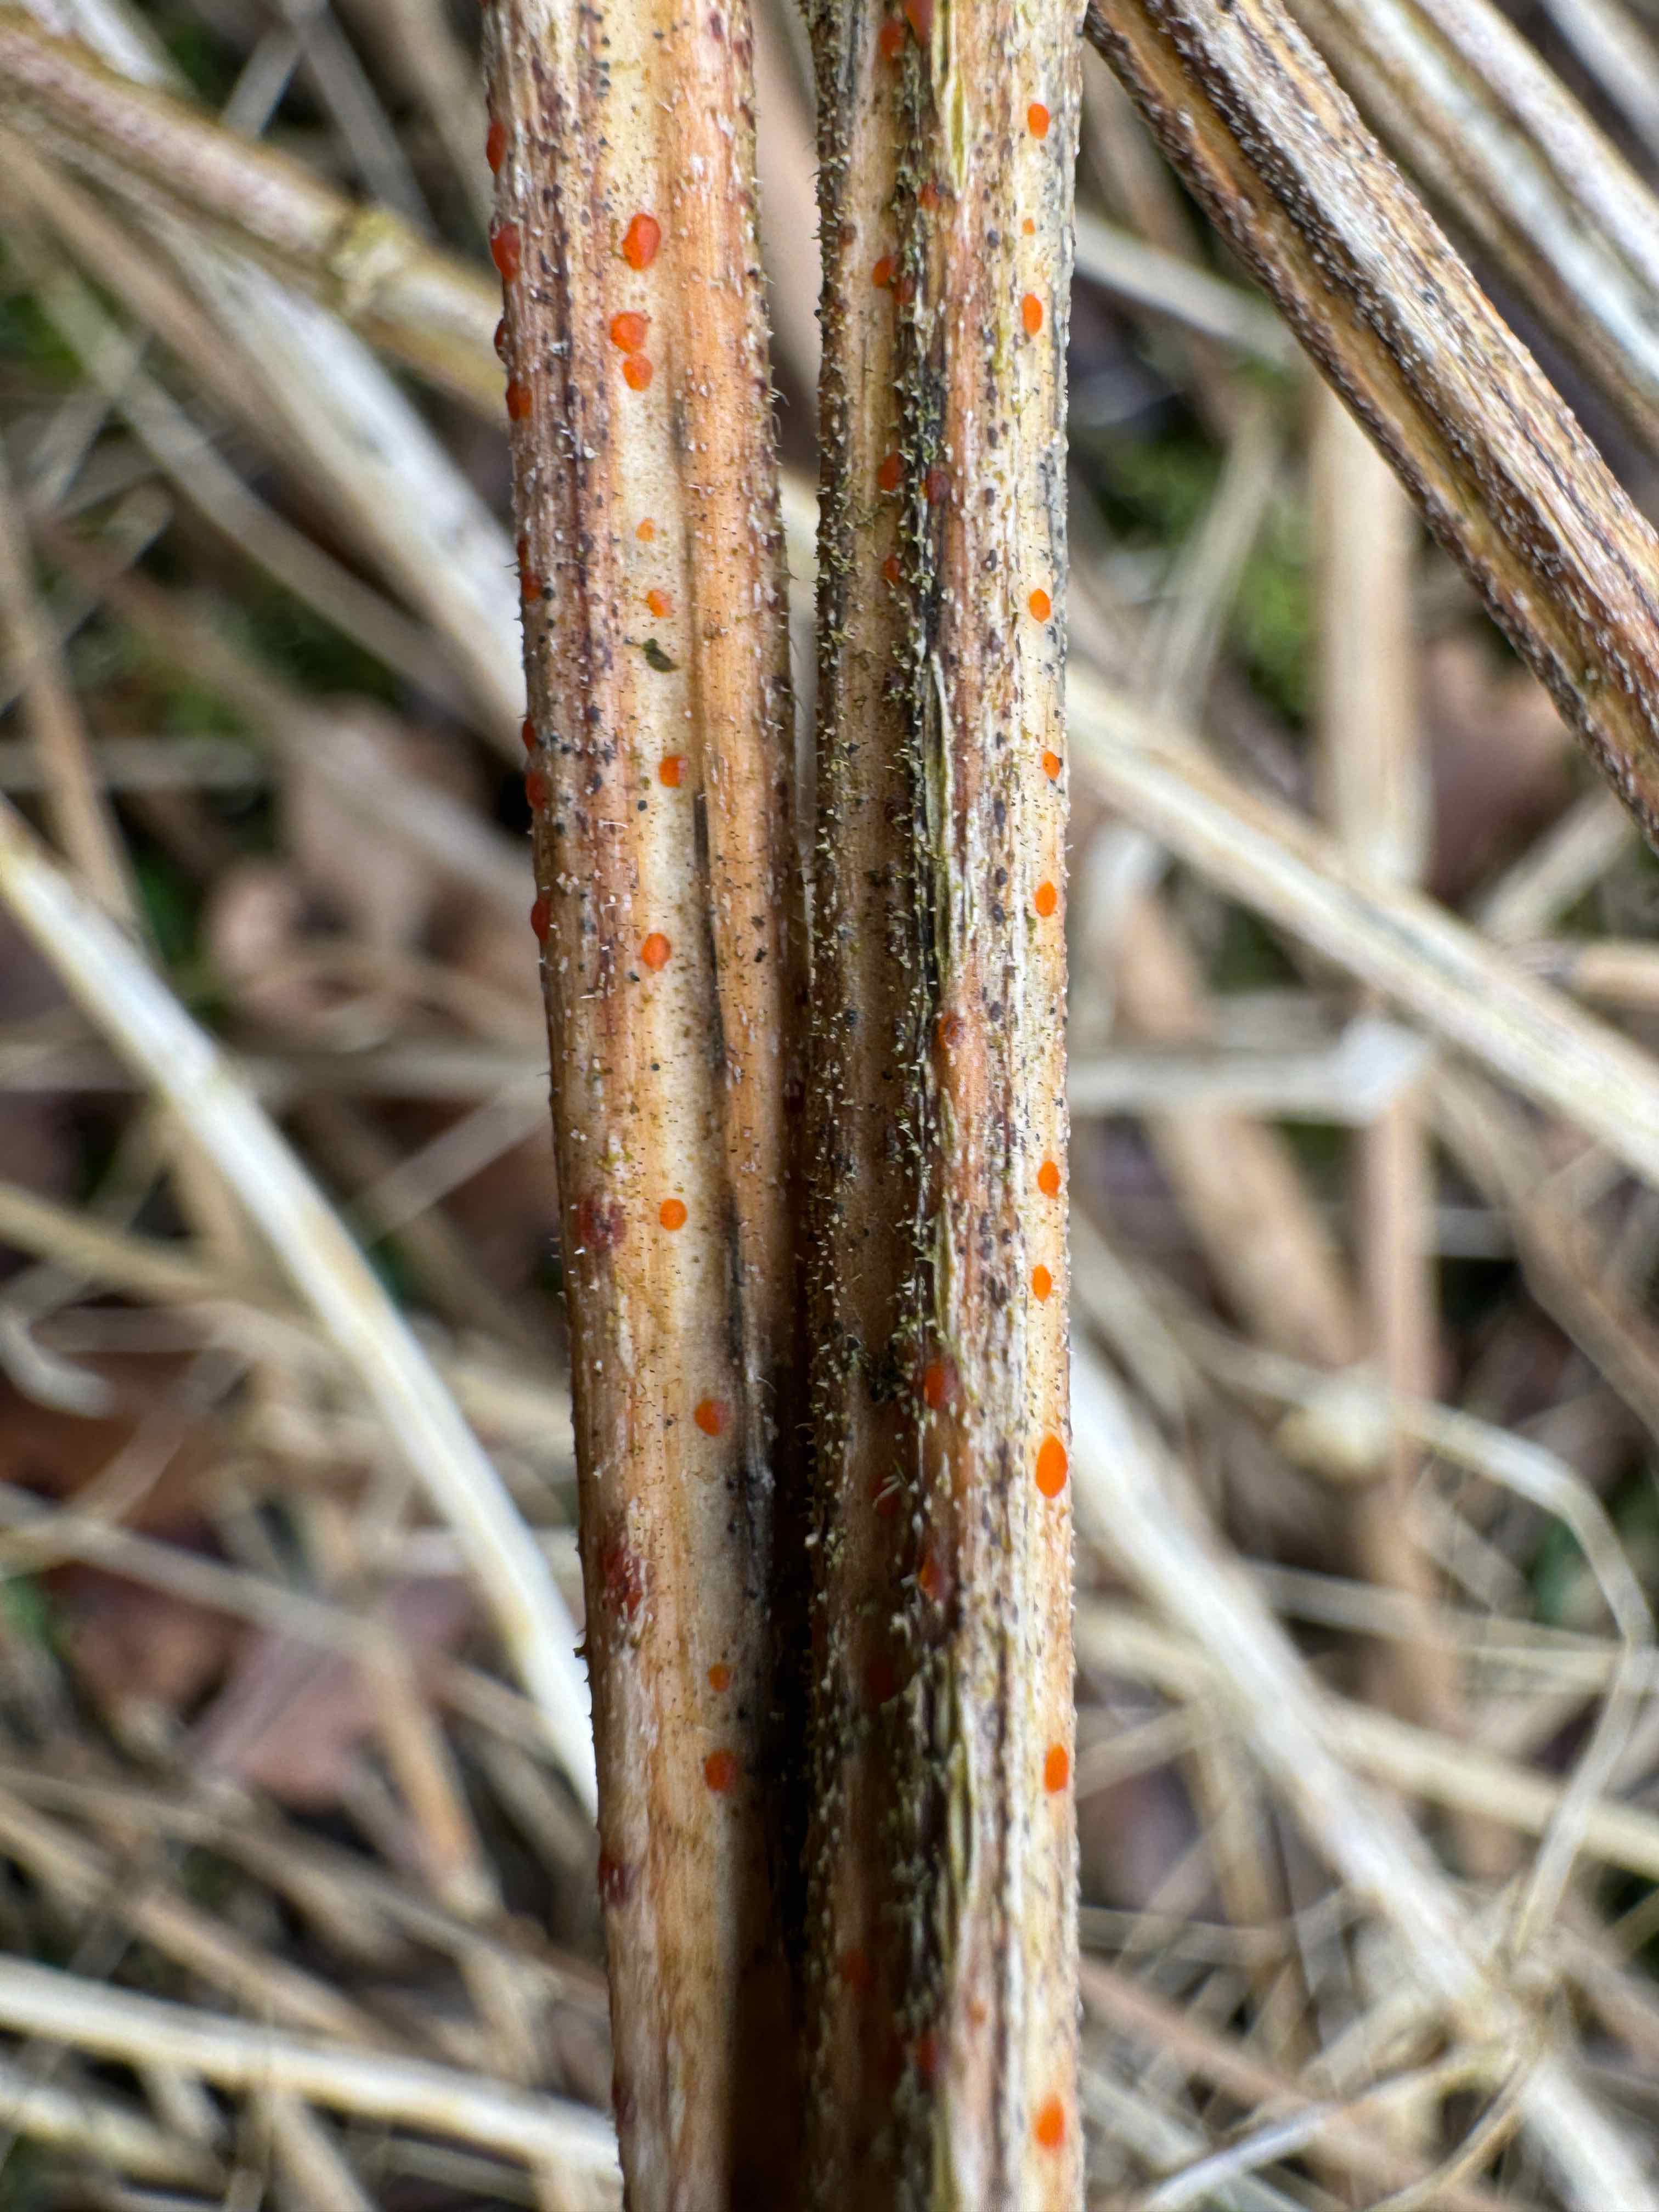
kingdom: Fungi
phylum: Ascomycota
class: Leotiomycetes
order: Helotiales
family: Calloriaceae
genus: Calloria
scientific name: Calloria urticae
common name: nælde-orangeskive
